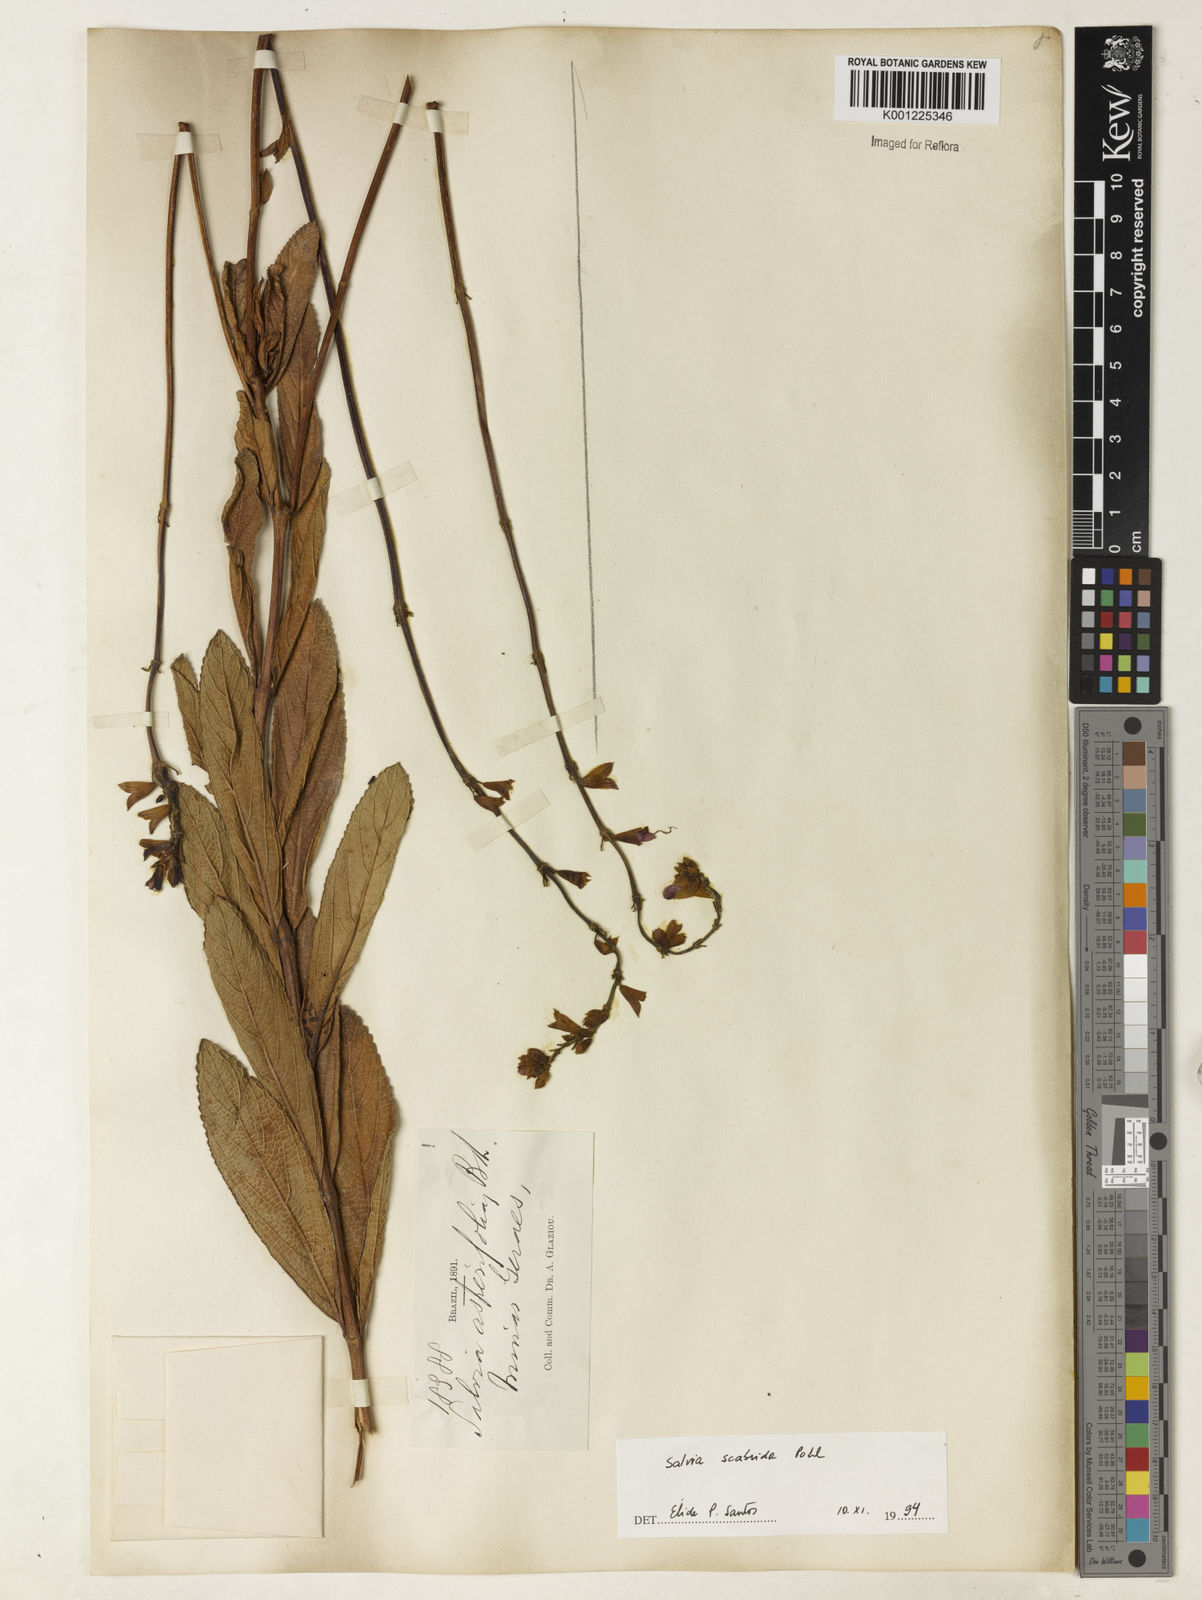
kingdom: Plantae
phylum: Tracheophyta
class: Magnoliopsida
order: Lamiales
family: Lamiaceae
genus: Salvia
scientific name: Salvia scabrida
